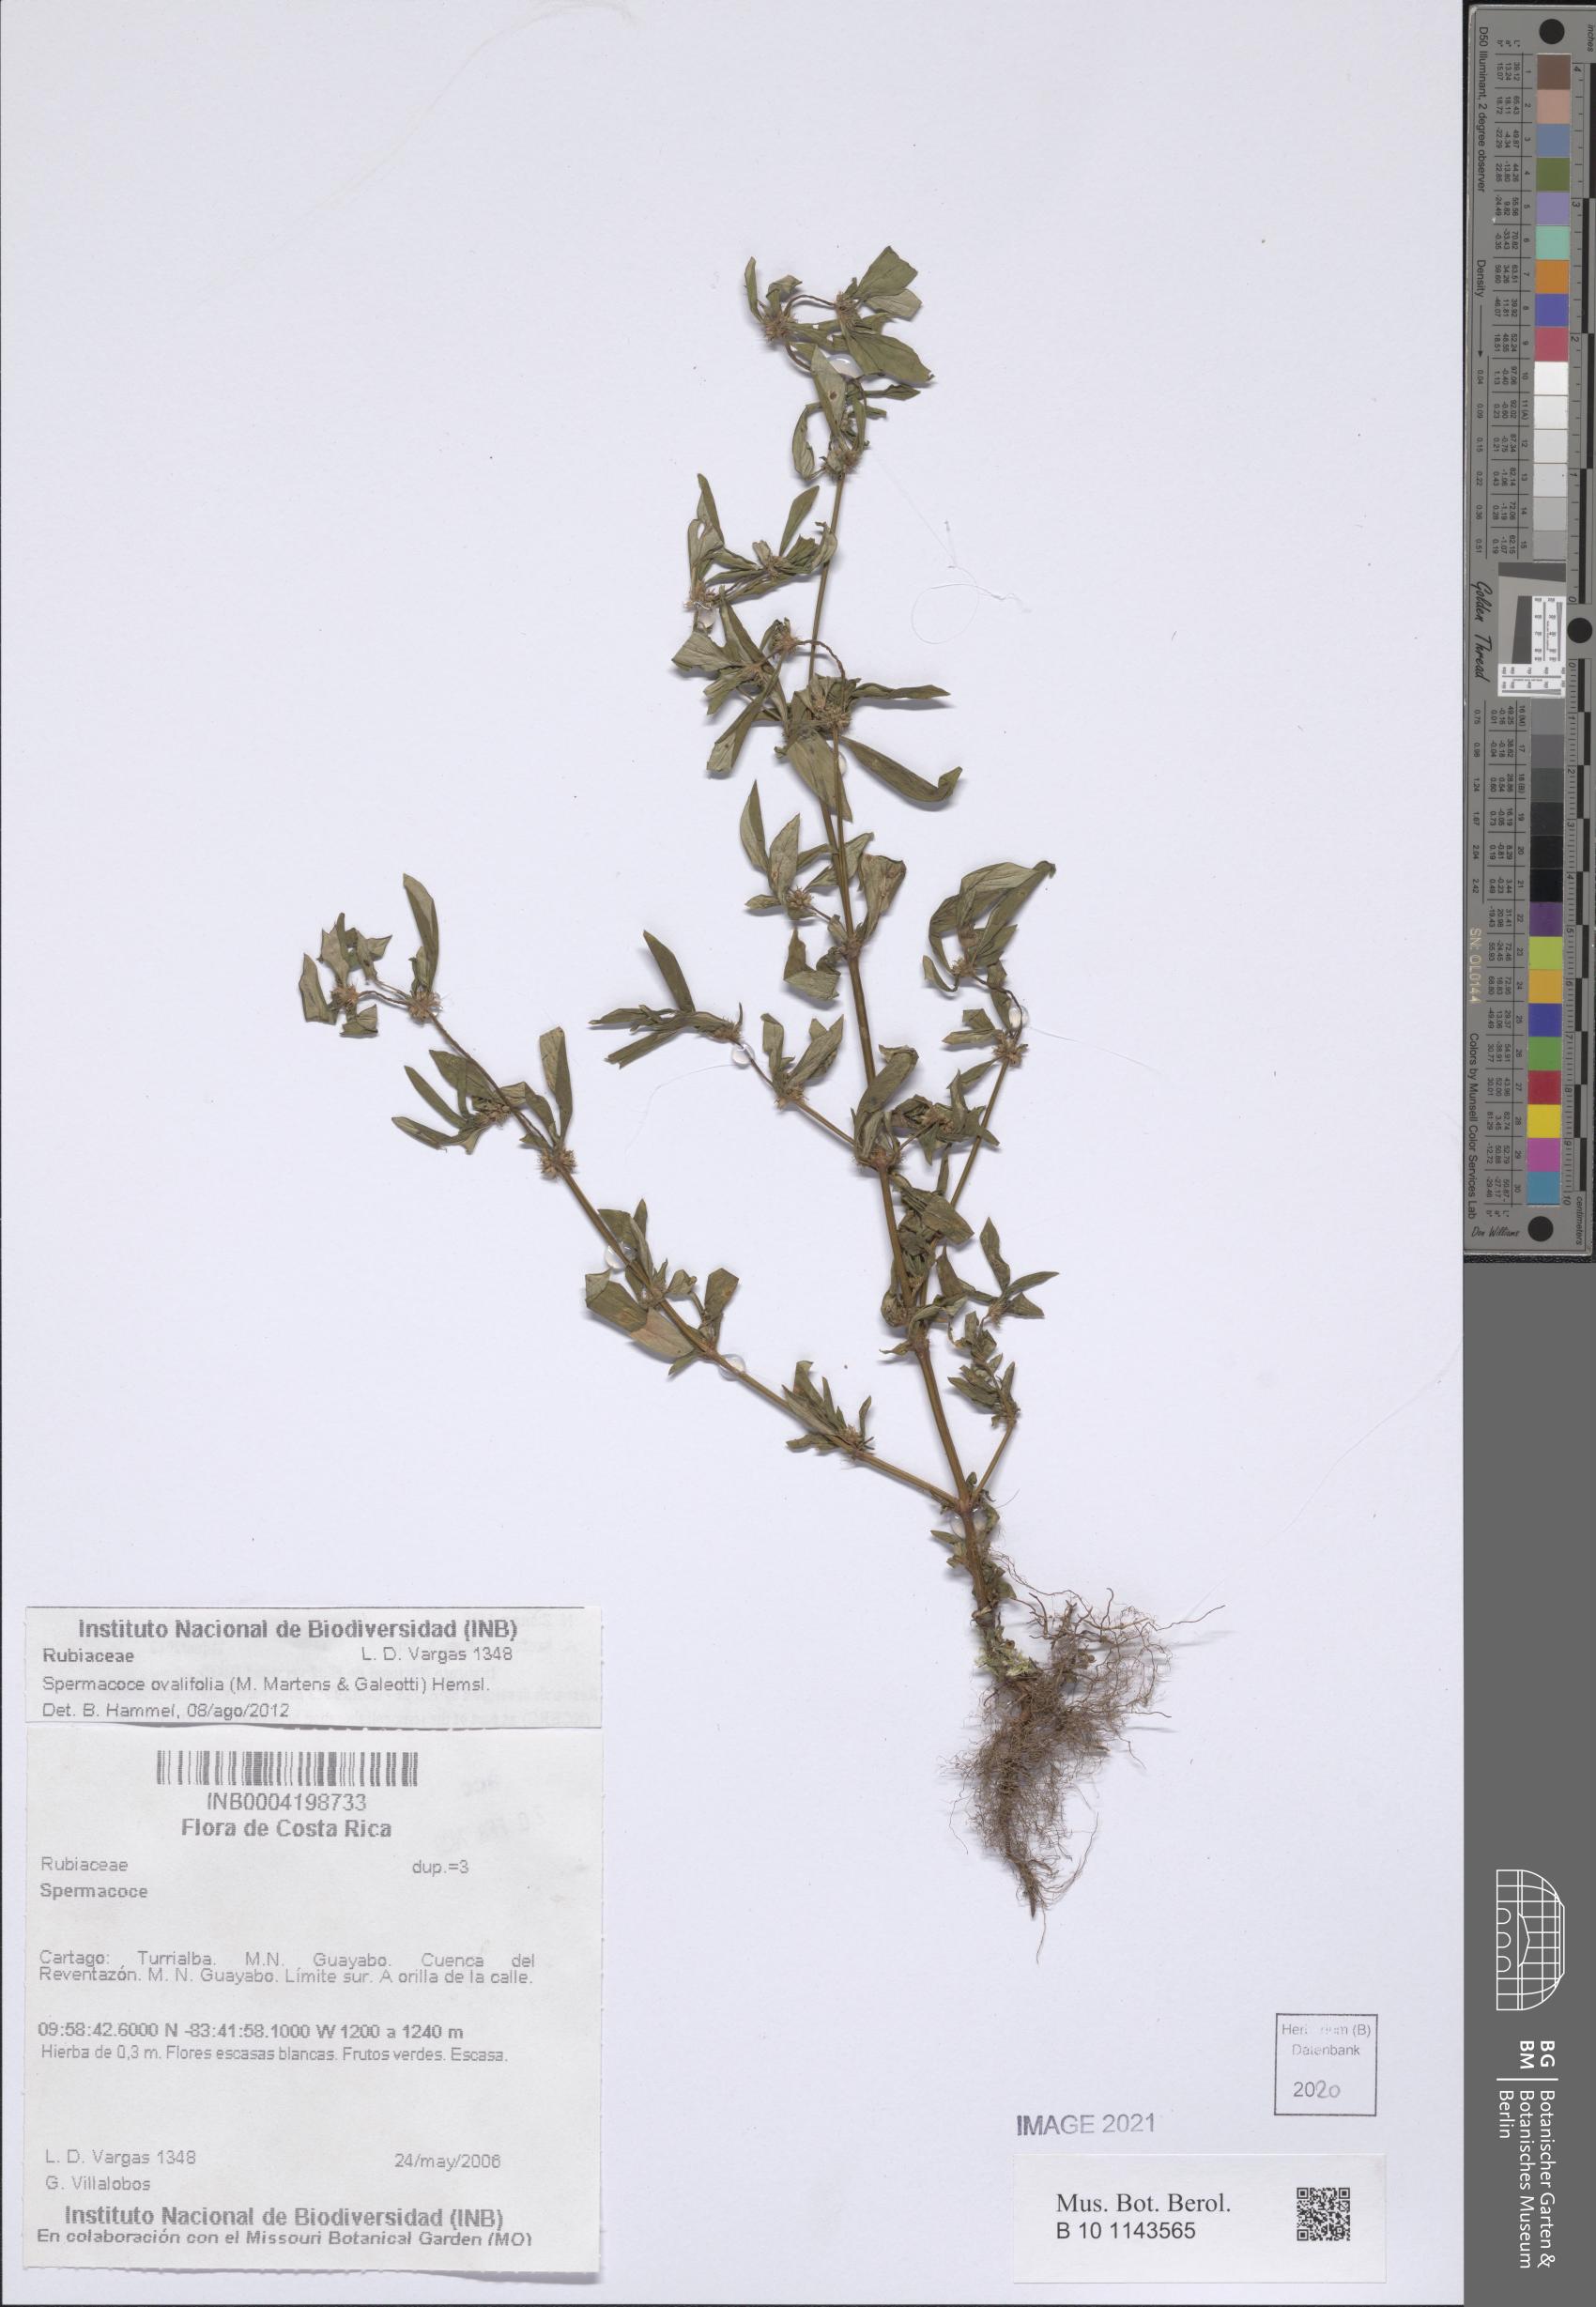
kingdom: Plantae
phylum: Tracheophyta
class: Magnoliopsida
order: Gentianales
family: Rubiaceae
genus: Spermacoce
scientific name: Spermacoce ovalifolia
